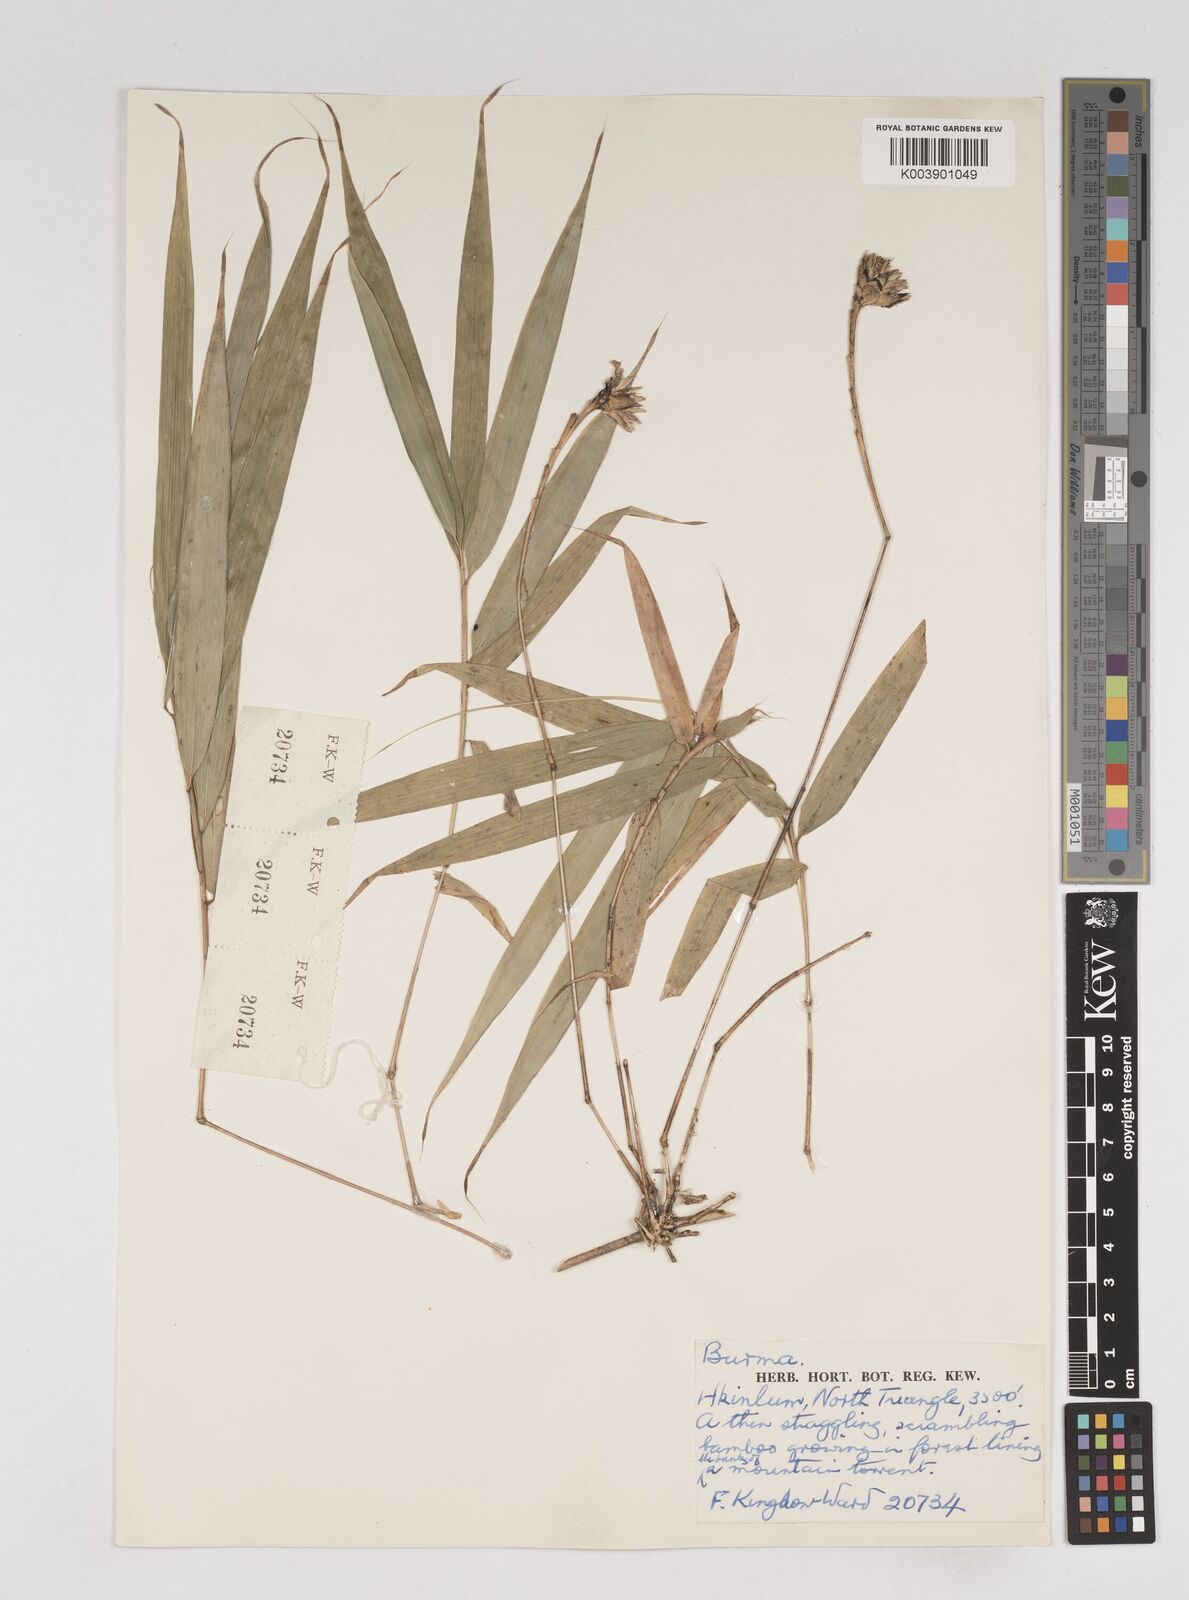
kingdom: Plantae
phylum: Tracheophyta
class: Liliopsida
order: Poales
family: Poaceae
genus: Cephalostachyum
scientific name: Cephalostachyum scandens
